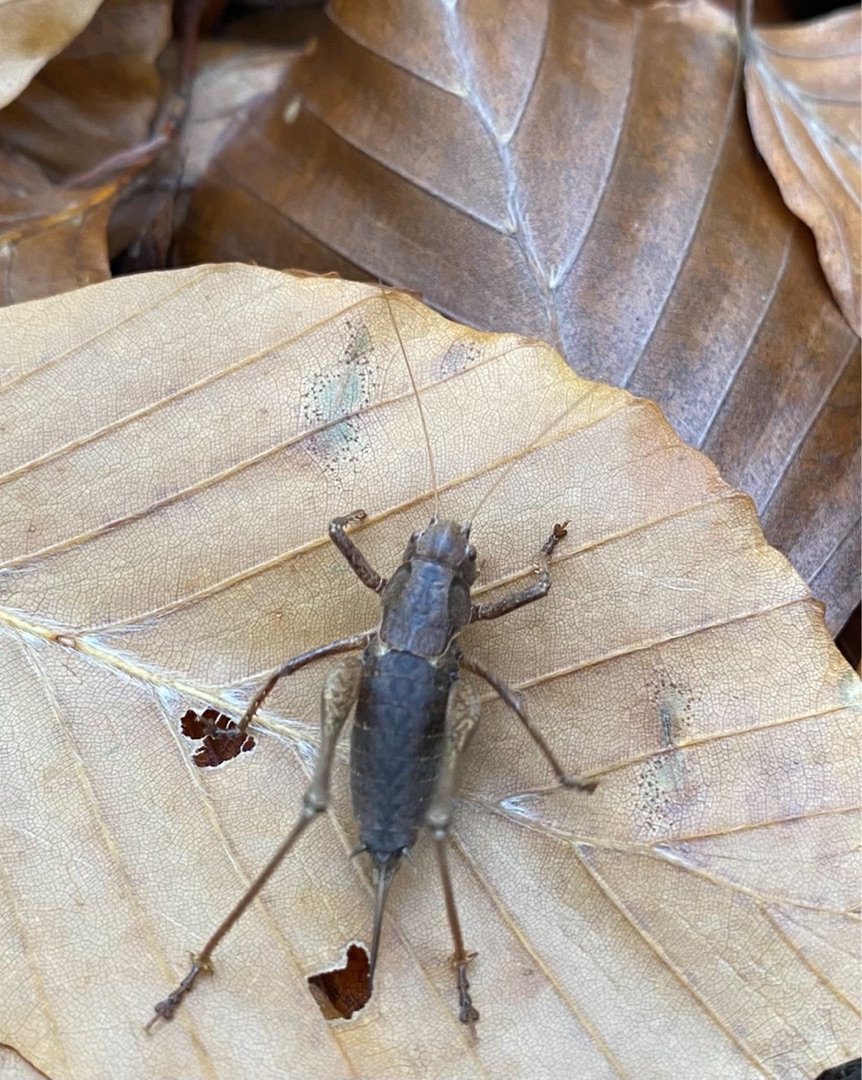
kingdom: Animalia
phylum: Arthropoda
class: Insecta
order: Orthoptera
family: Tettigoniidae
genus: Pholidoptera
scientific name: Pholidoptera griseoaptera
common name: Buskgræshoppe
